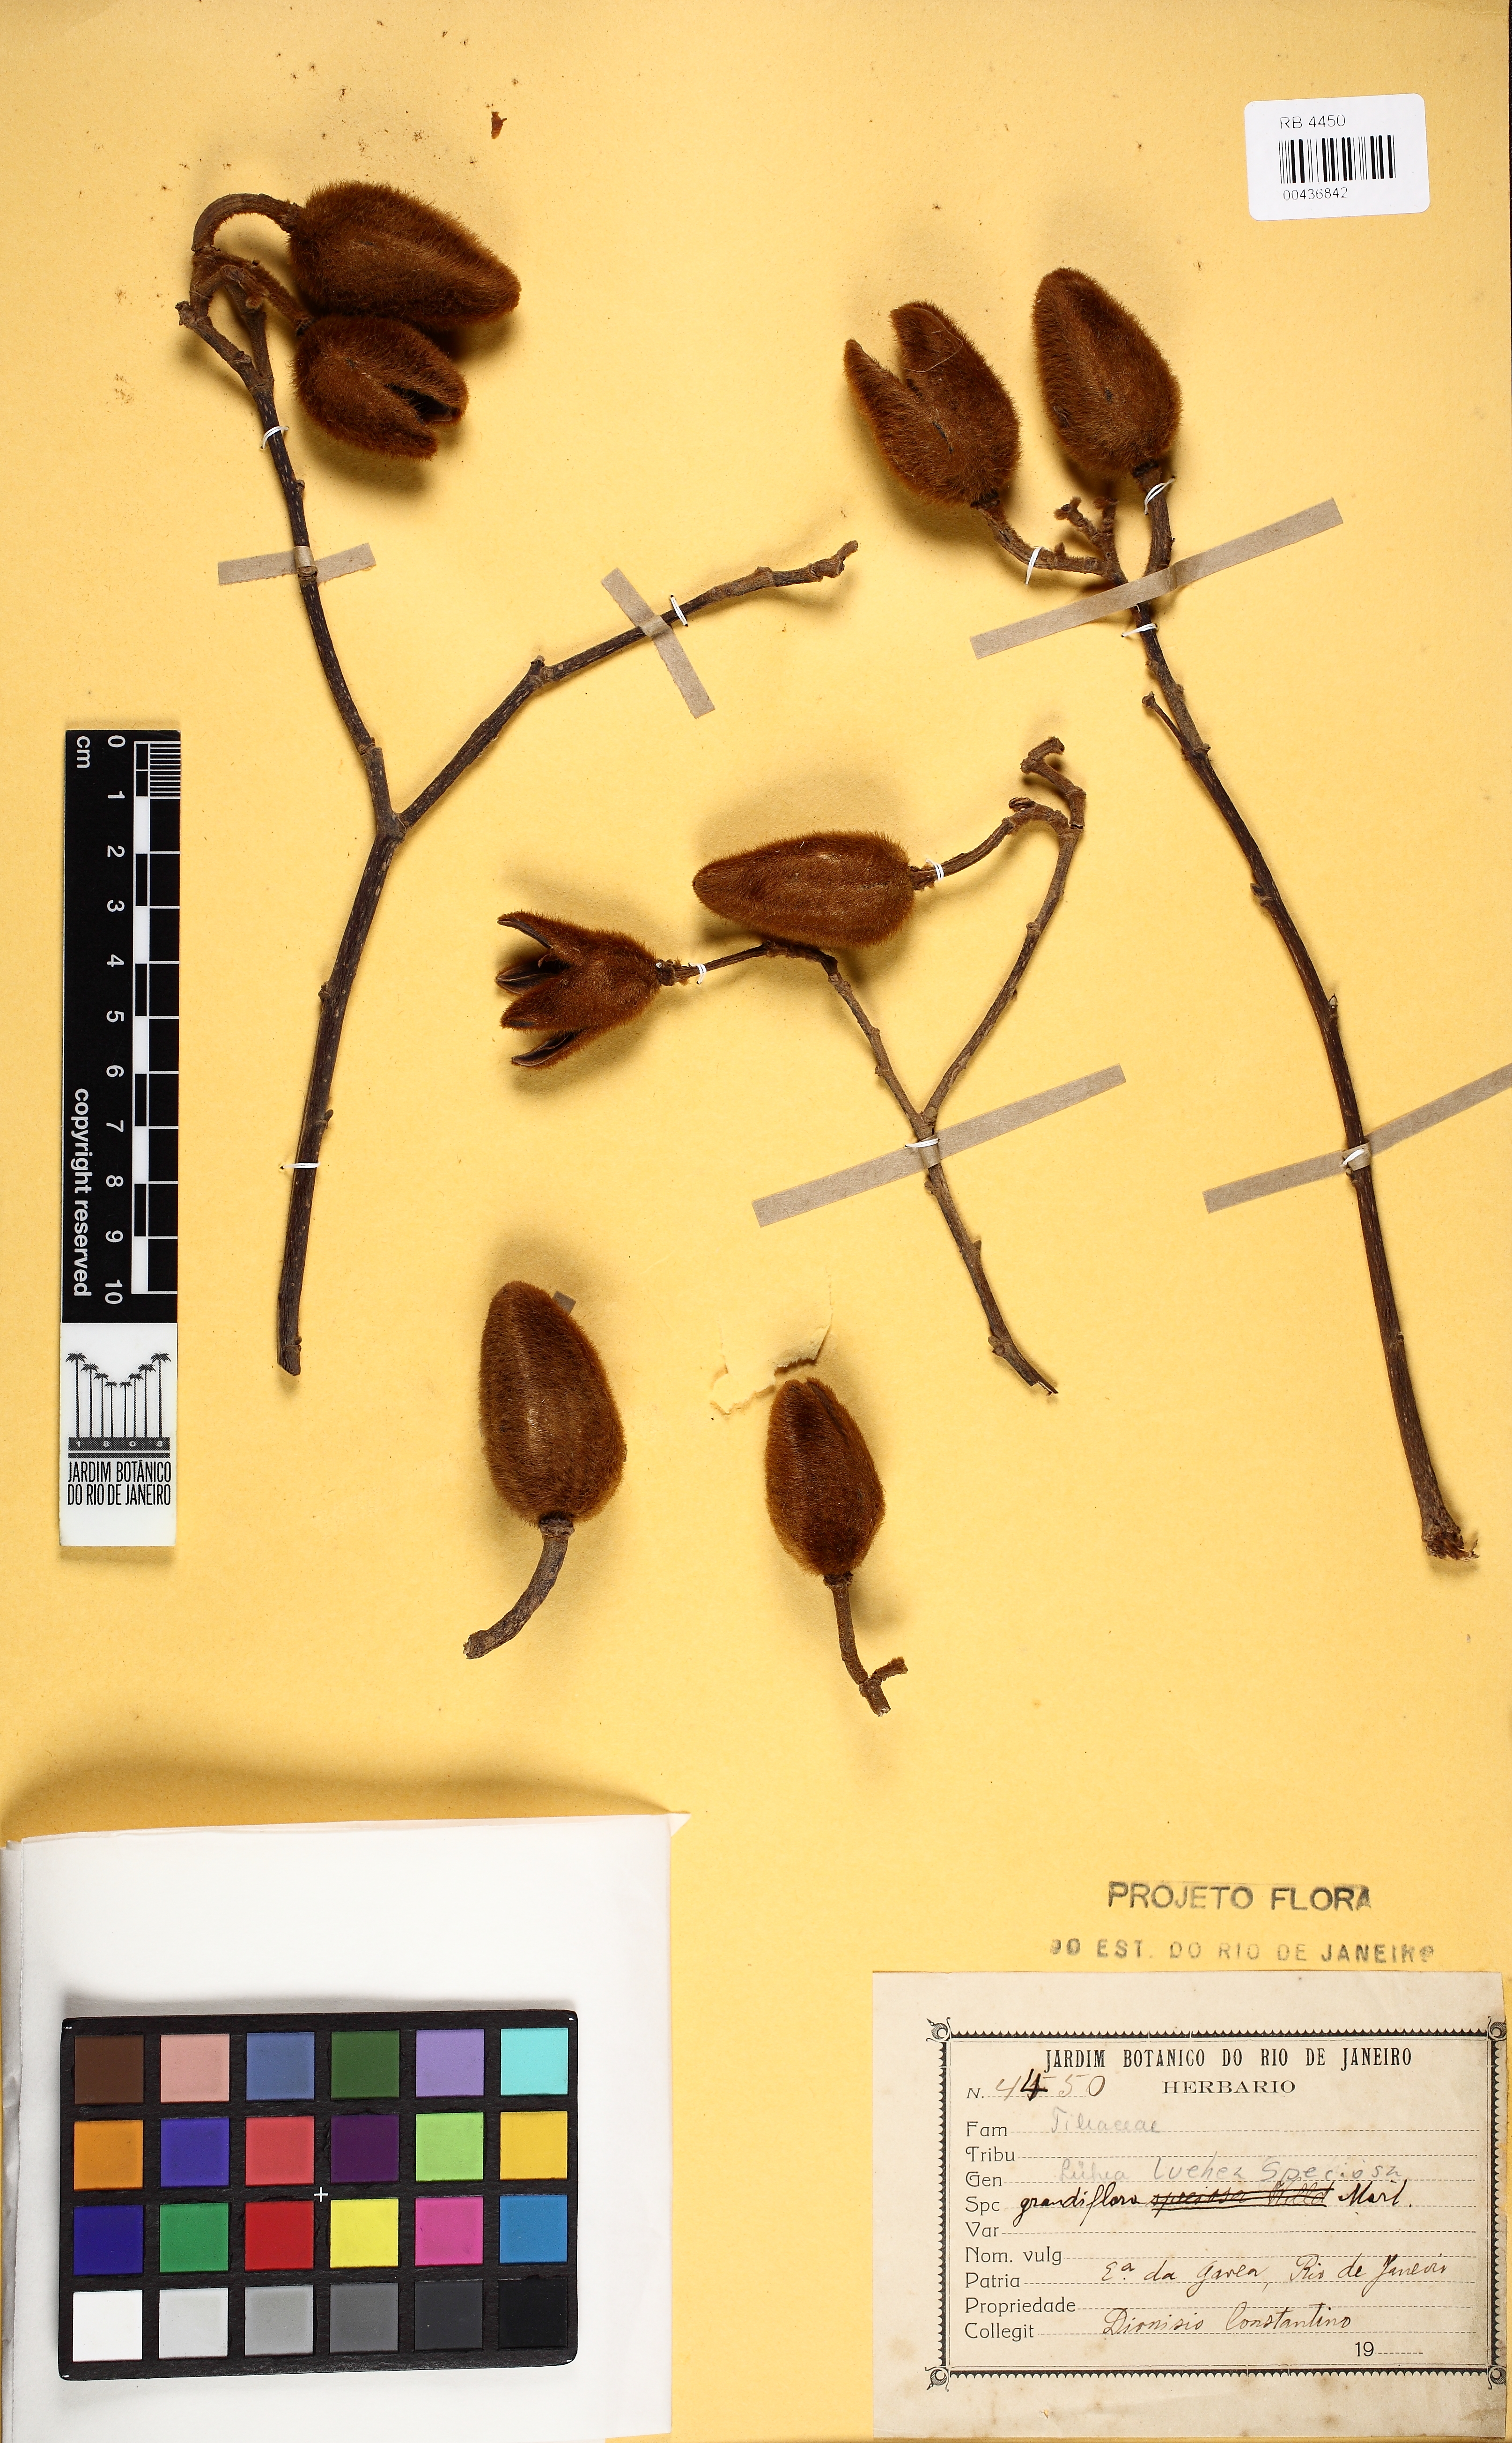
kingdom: Plantae
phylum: Tracheophyta
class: Magnoliopsida
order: Malvales
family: Malvaceae
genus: Luehea
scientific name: Luehea speciosa
